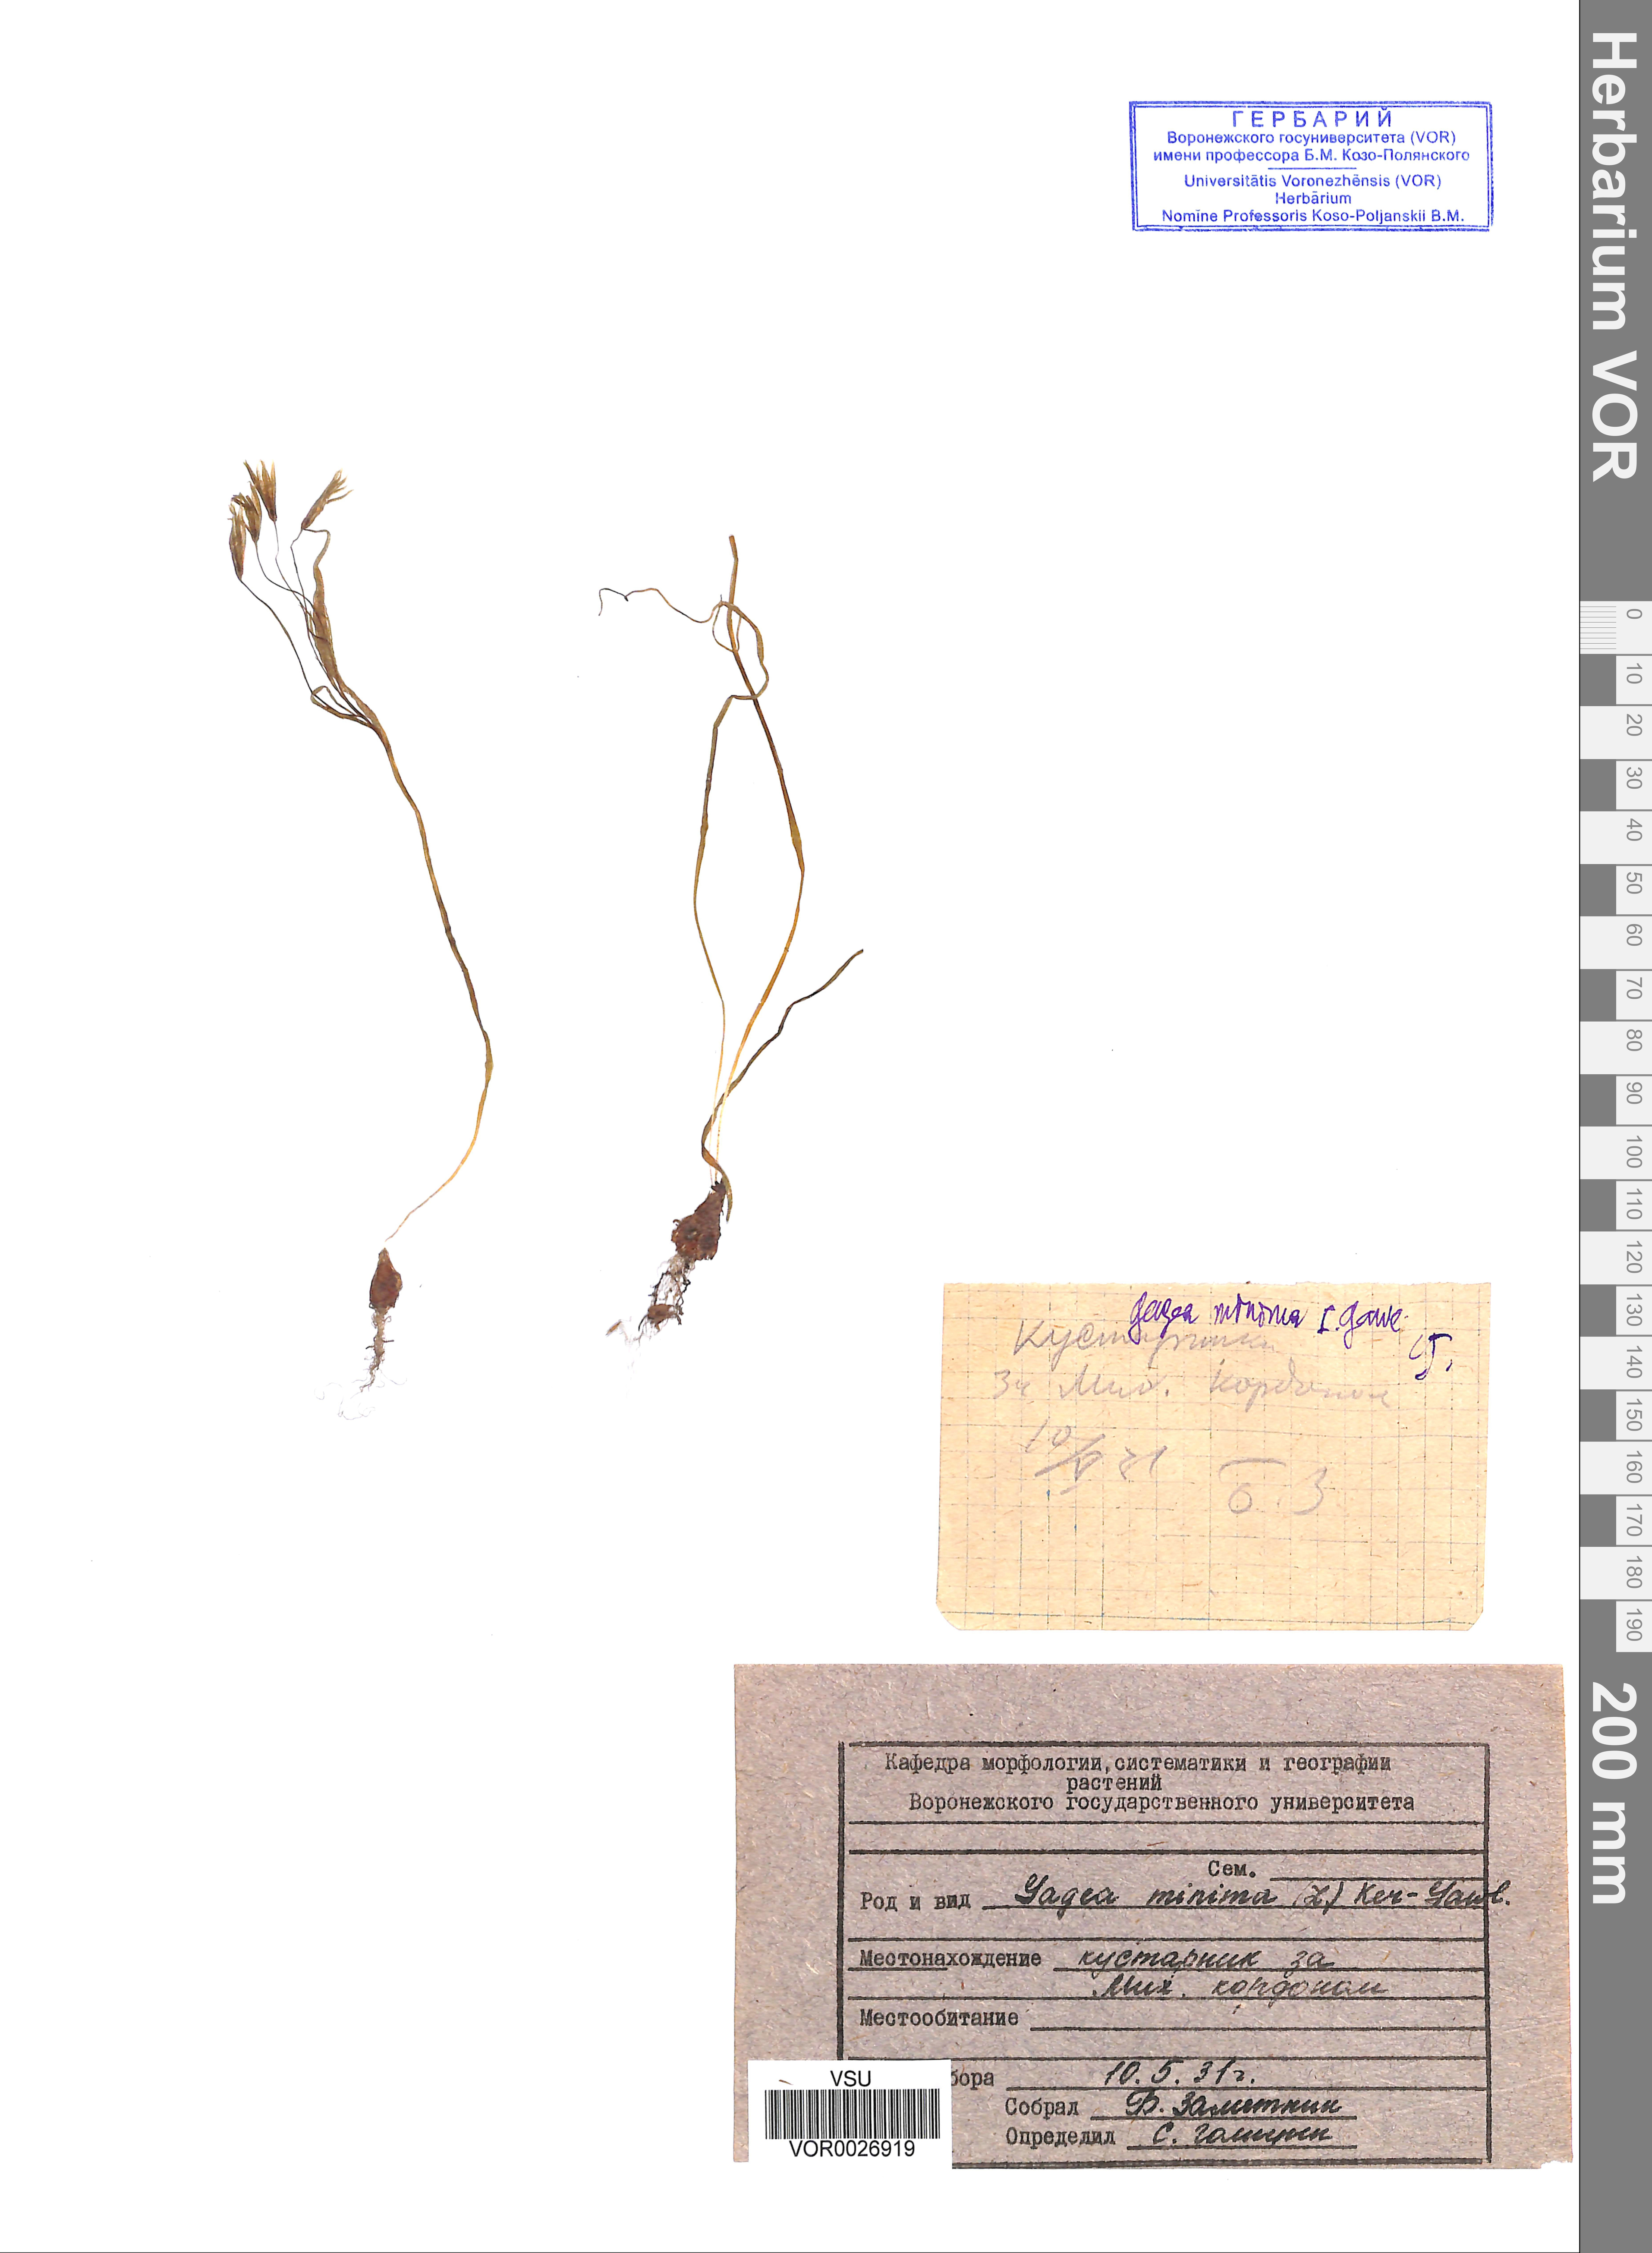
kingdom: Plantae
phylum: Tracheophyta
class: Liliopsida
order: Liliales
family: Liliaceae
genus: Gagea
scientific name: Gagea minima
